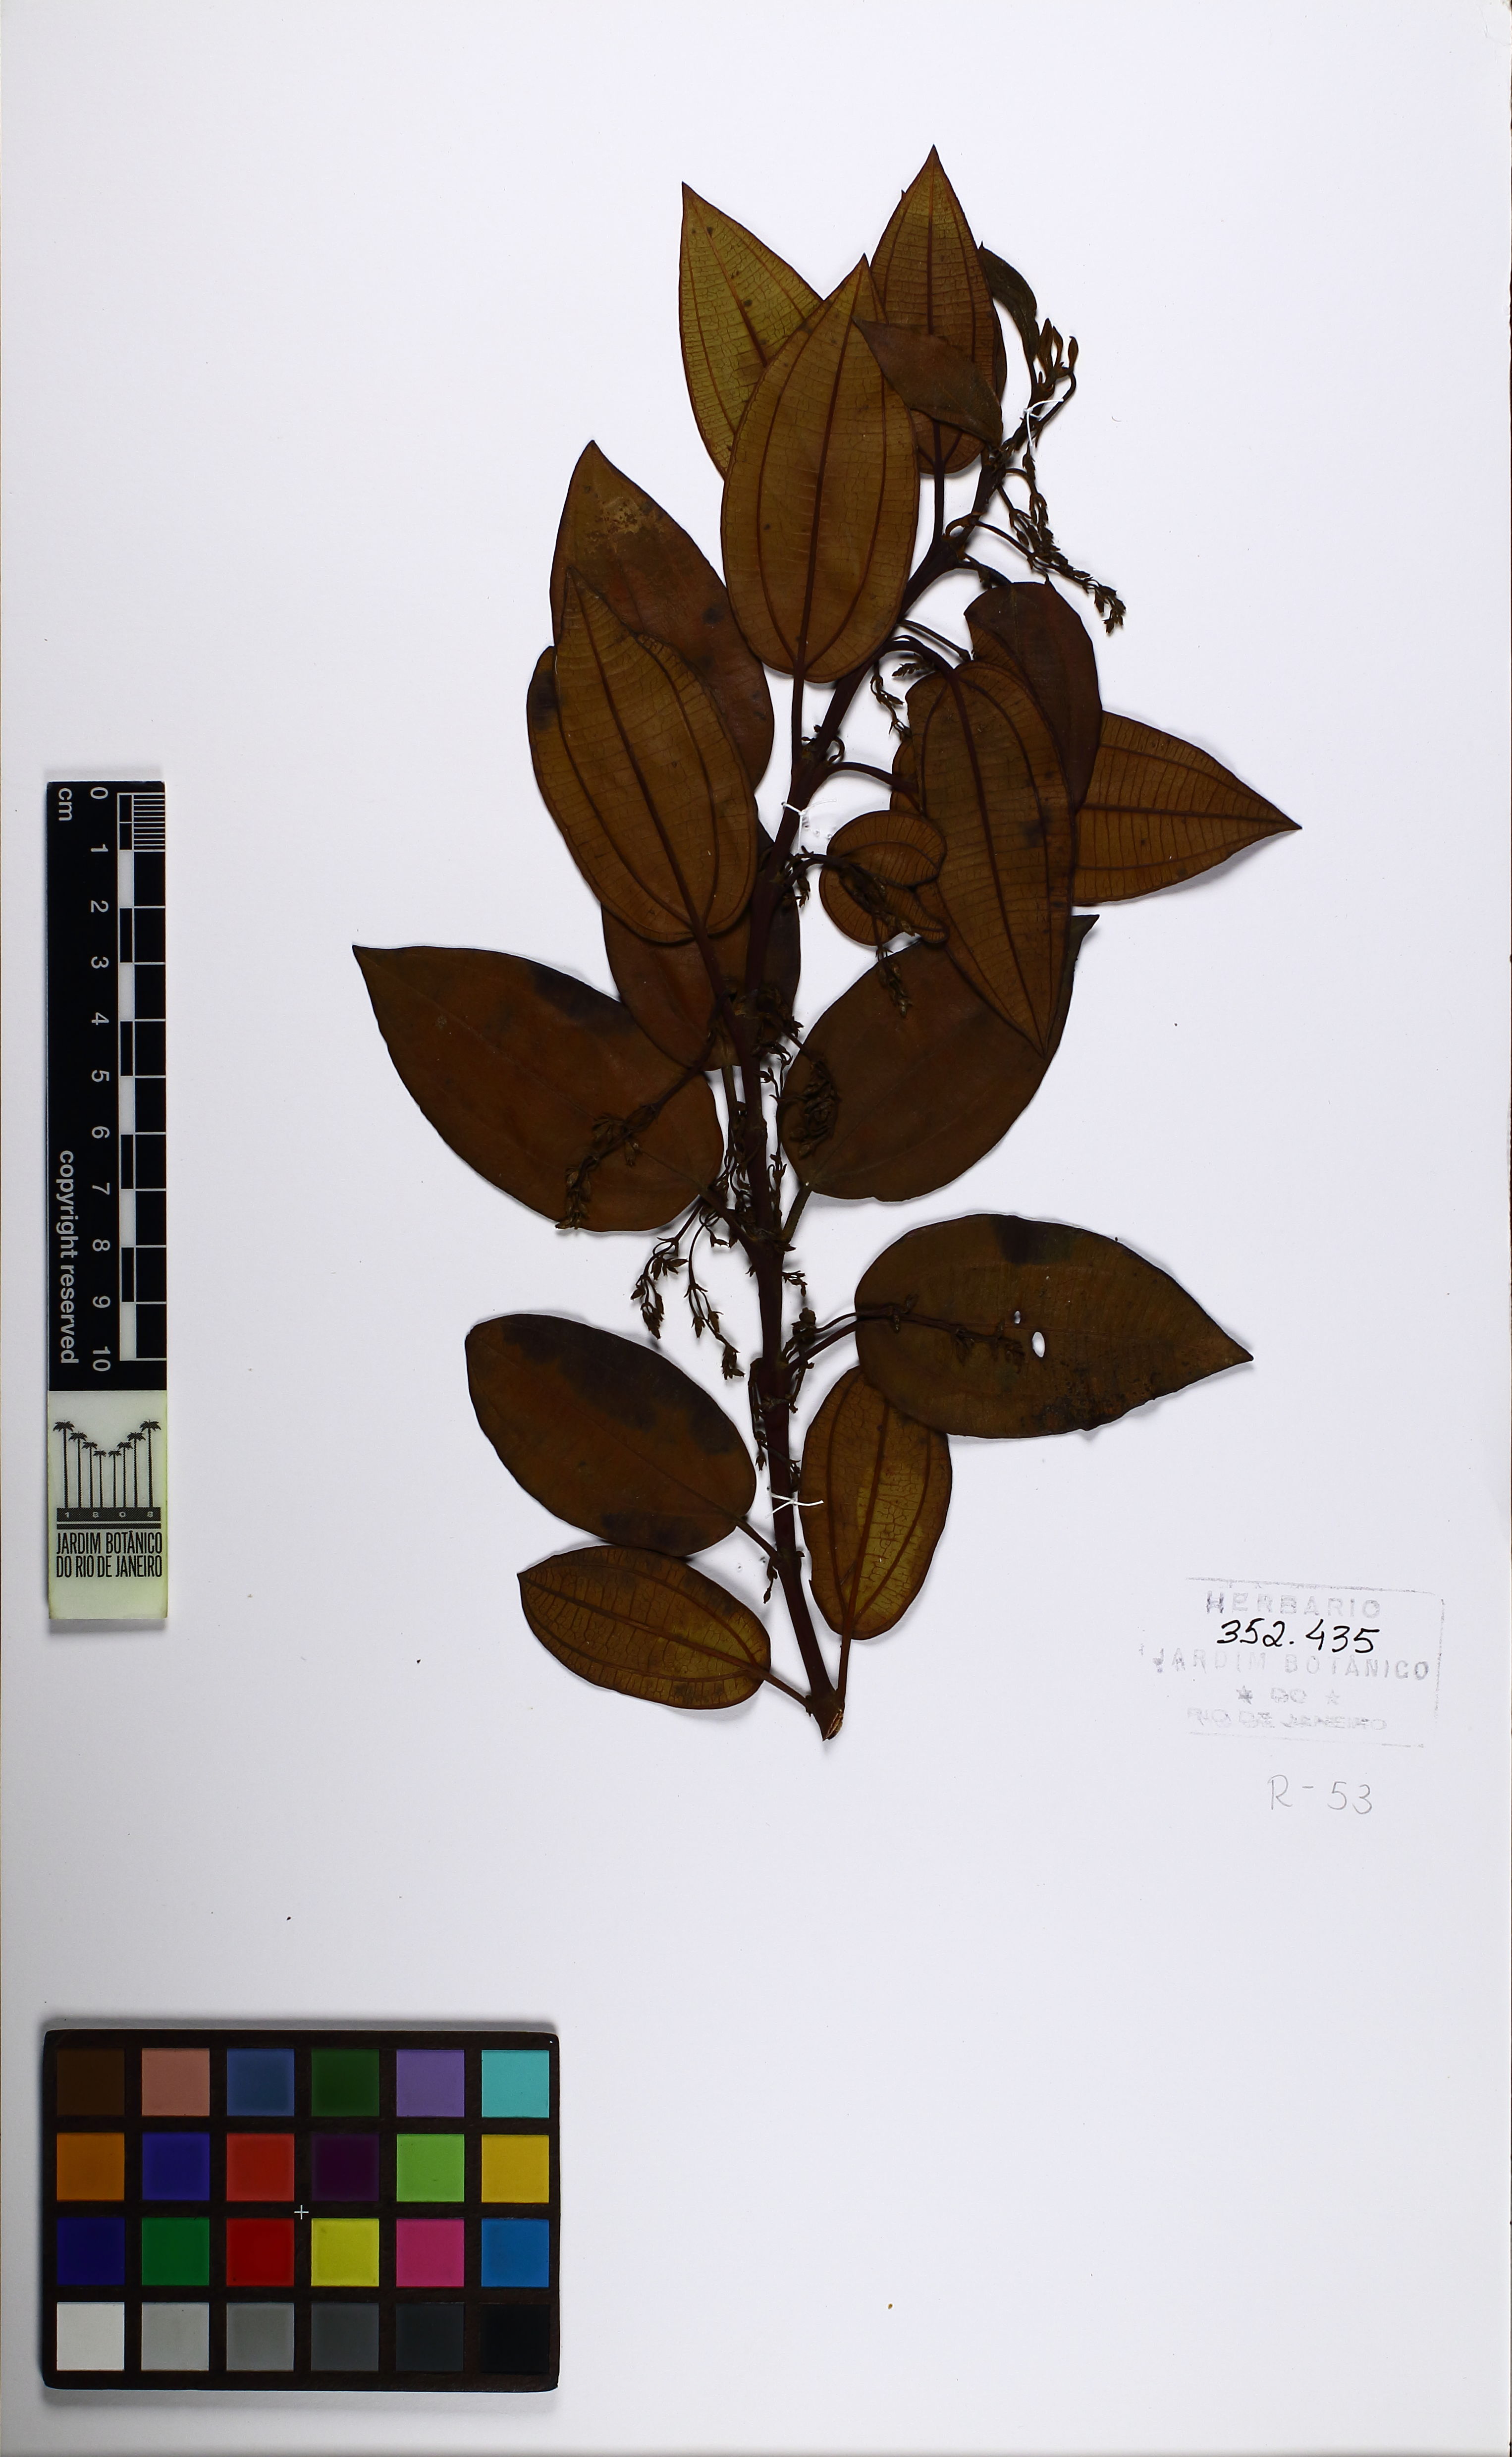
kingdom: Plantae
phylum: Tracheophyta
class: Magnoliopsida
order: Myrtales
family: Melastomataceae
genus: Miconia
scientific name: Miconia leabiscoriacea
